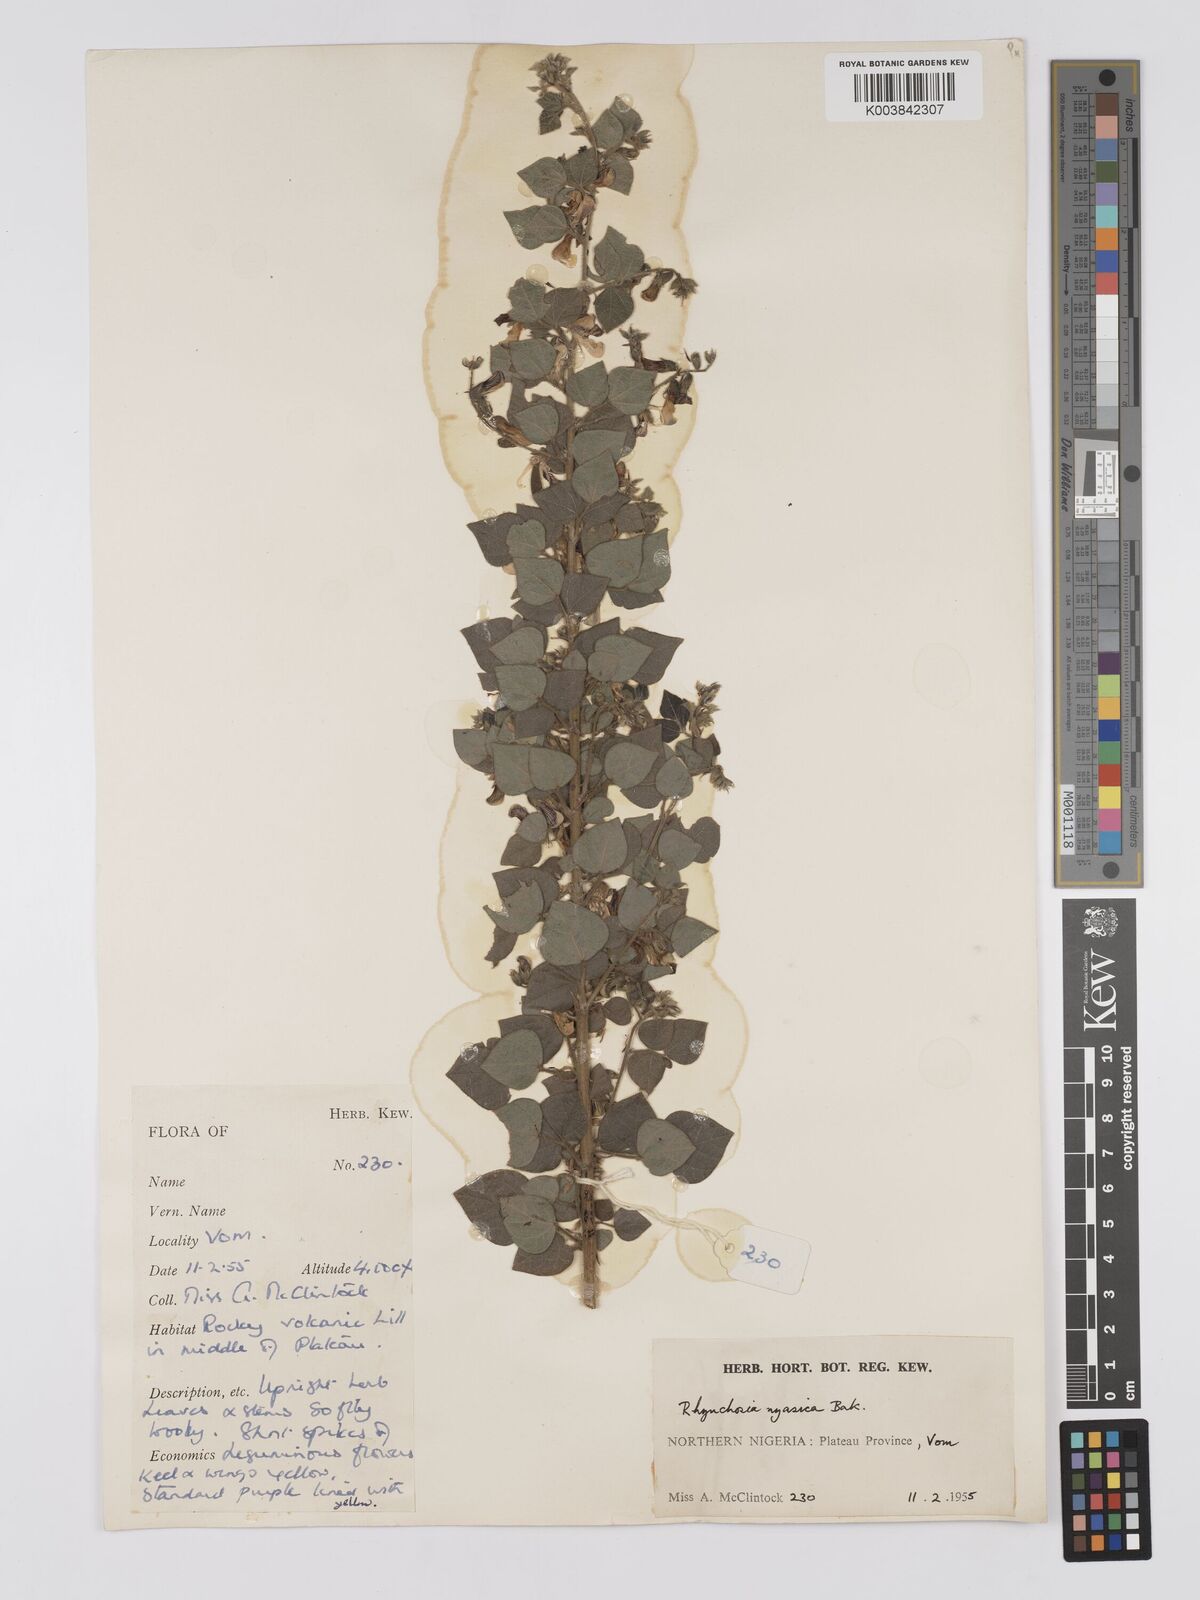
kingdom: Plantae
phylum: Tracheophyta
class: Magnoliopsida
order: Fabales
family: Fabaceae
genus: Rhynchosia
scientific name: Rhynchosia nyasica
